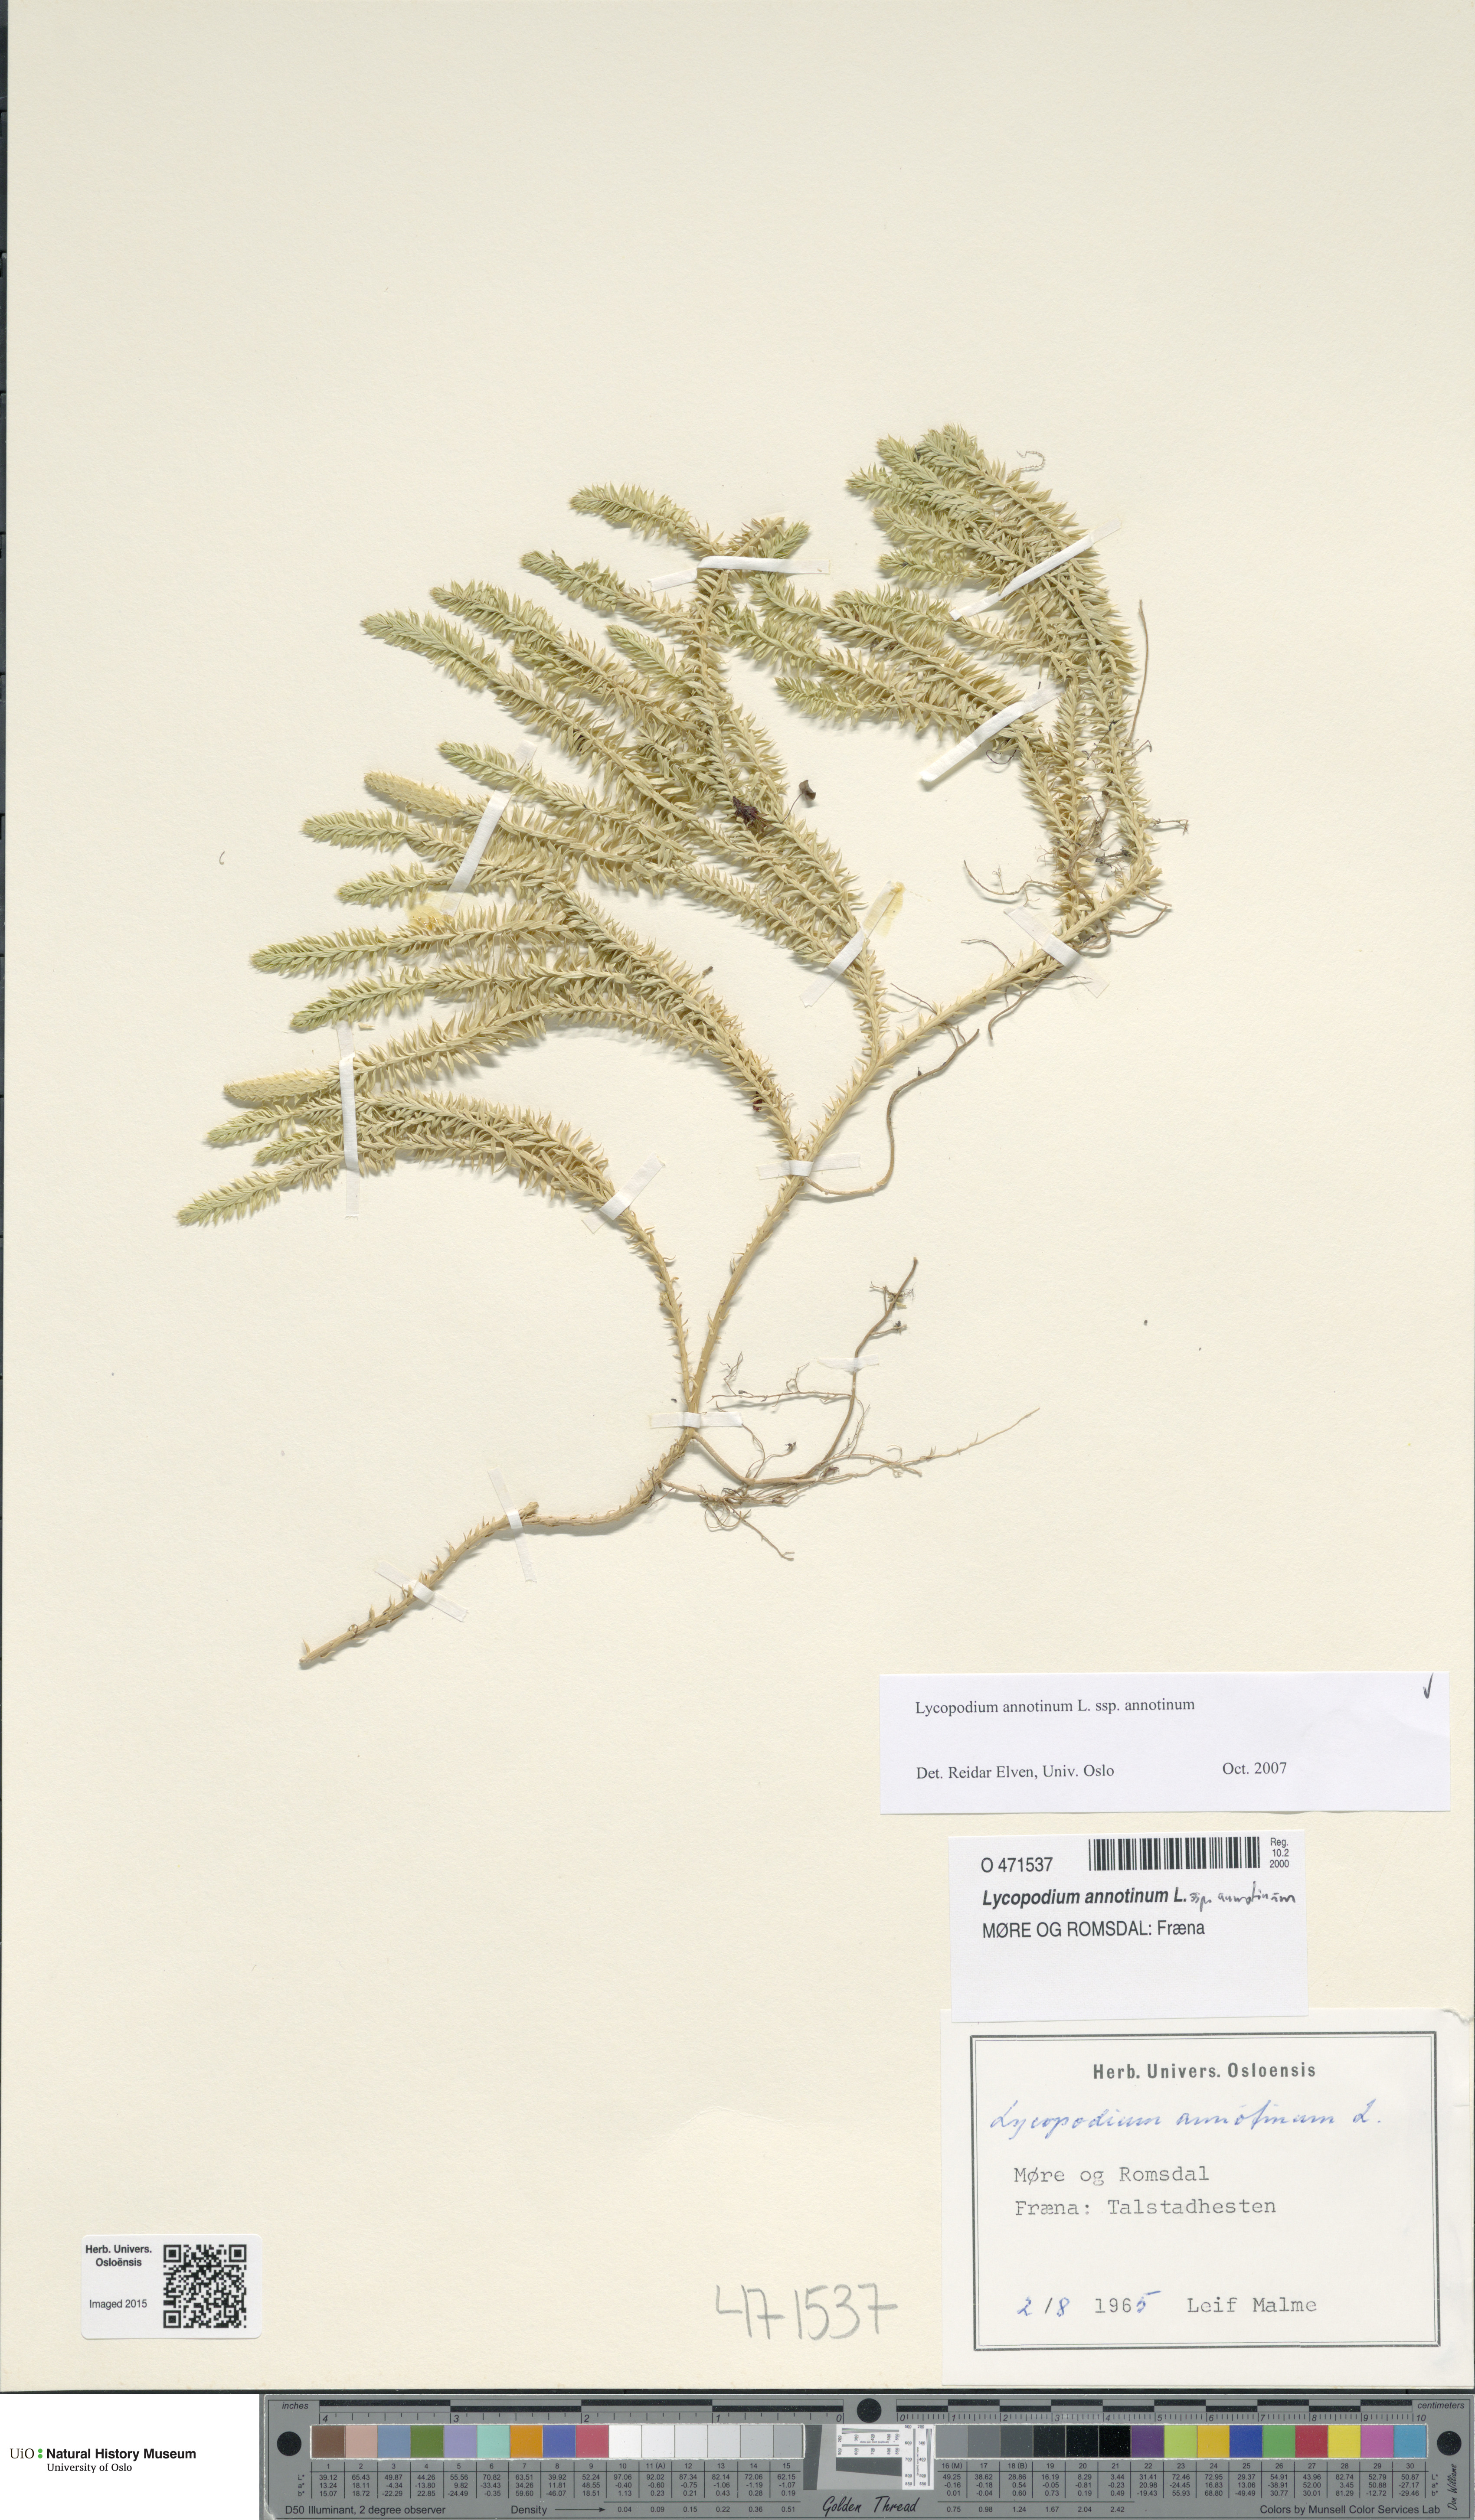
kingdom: Plantae
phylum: Tracheophyta
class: Lycopodiopsida
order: Lycopodiales
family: Lycopodiaceae
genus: Spinulum
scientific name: Spinulum annotinum
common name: Interrupted club-moss
